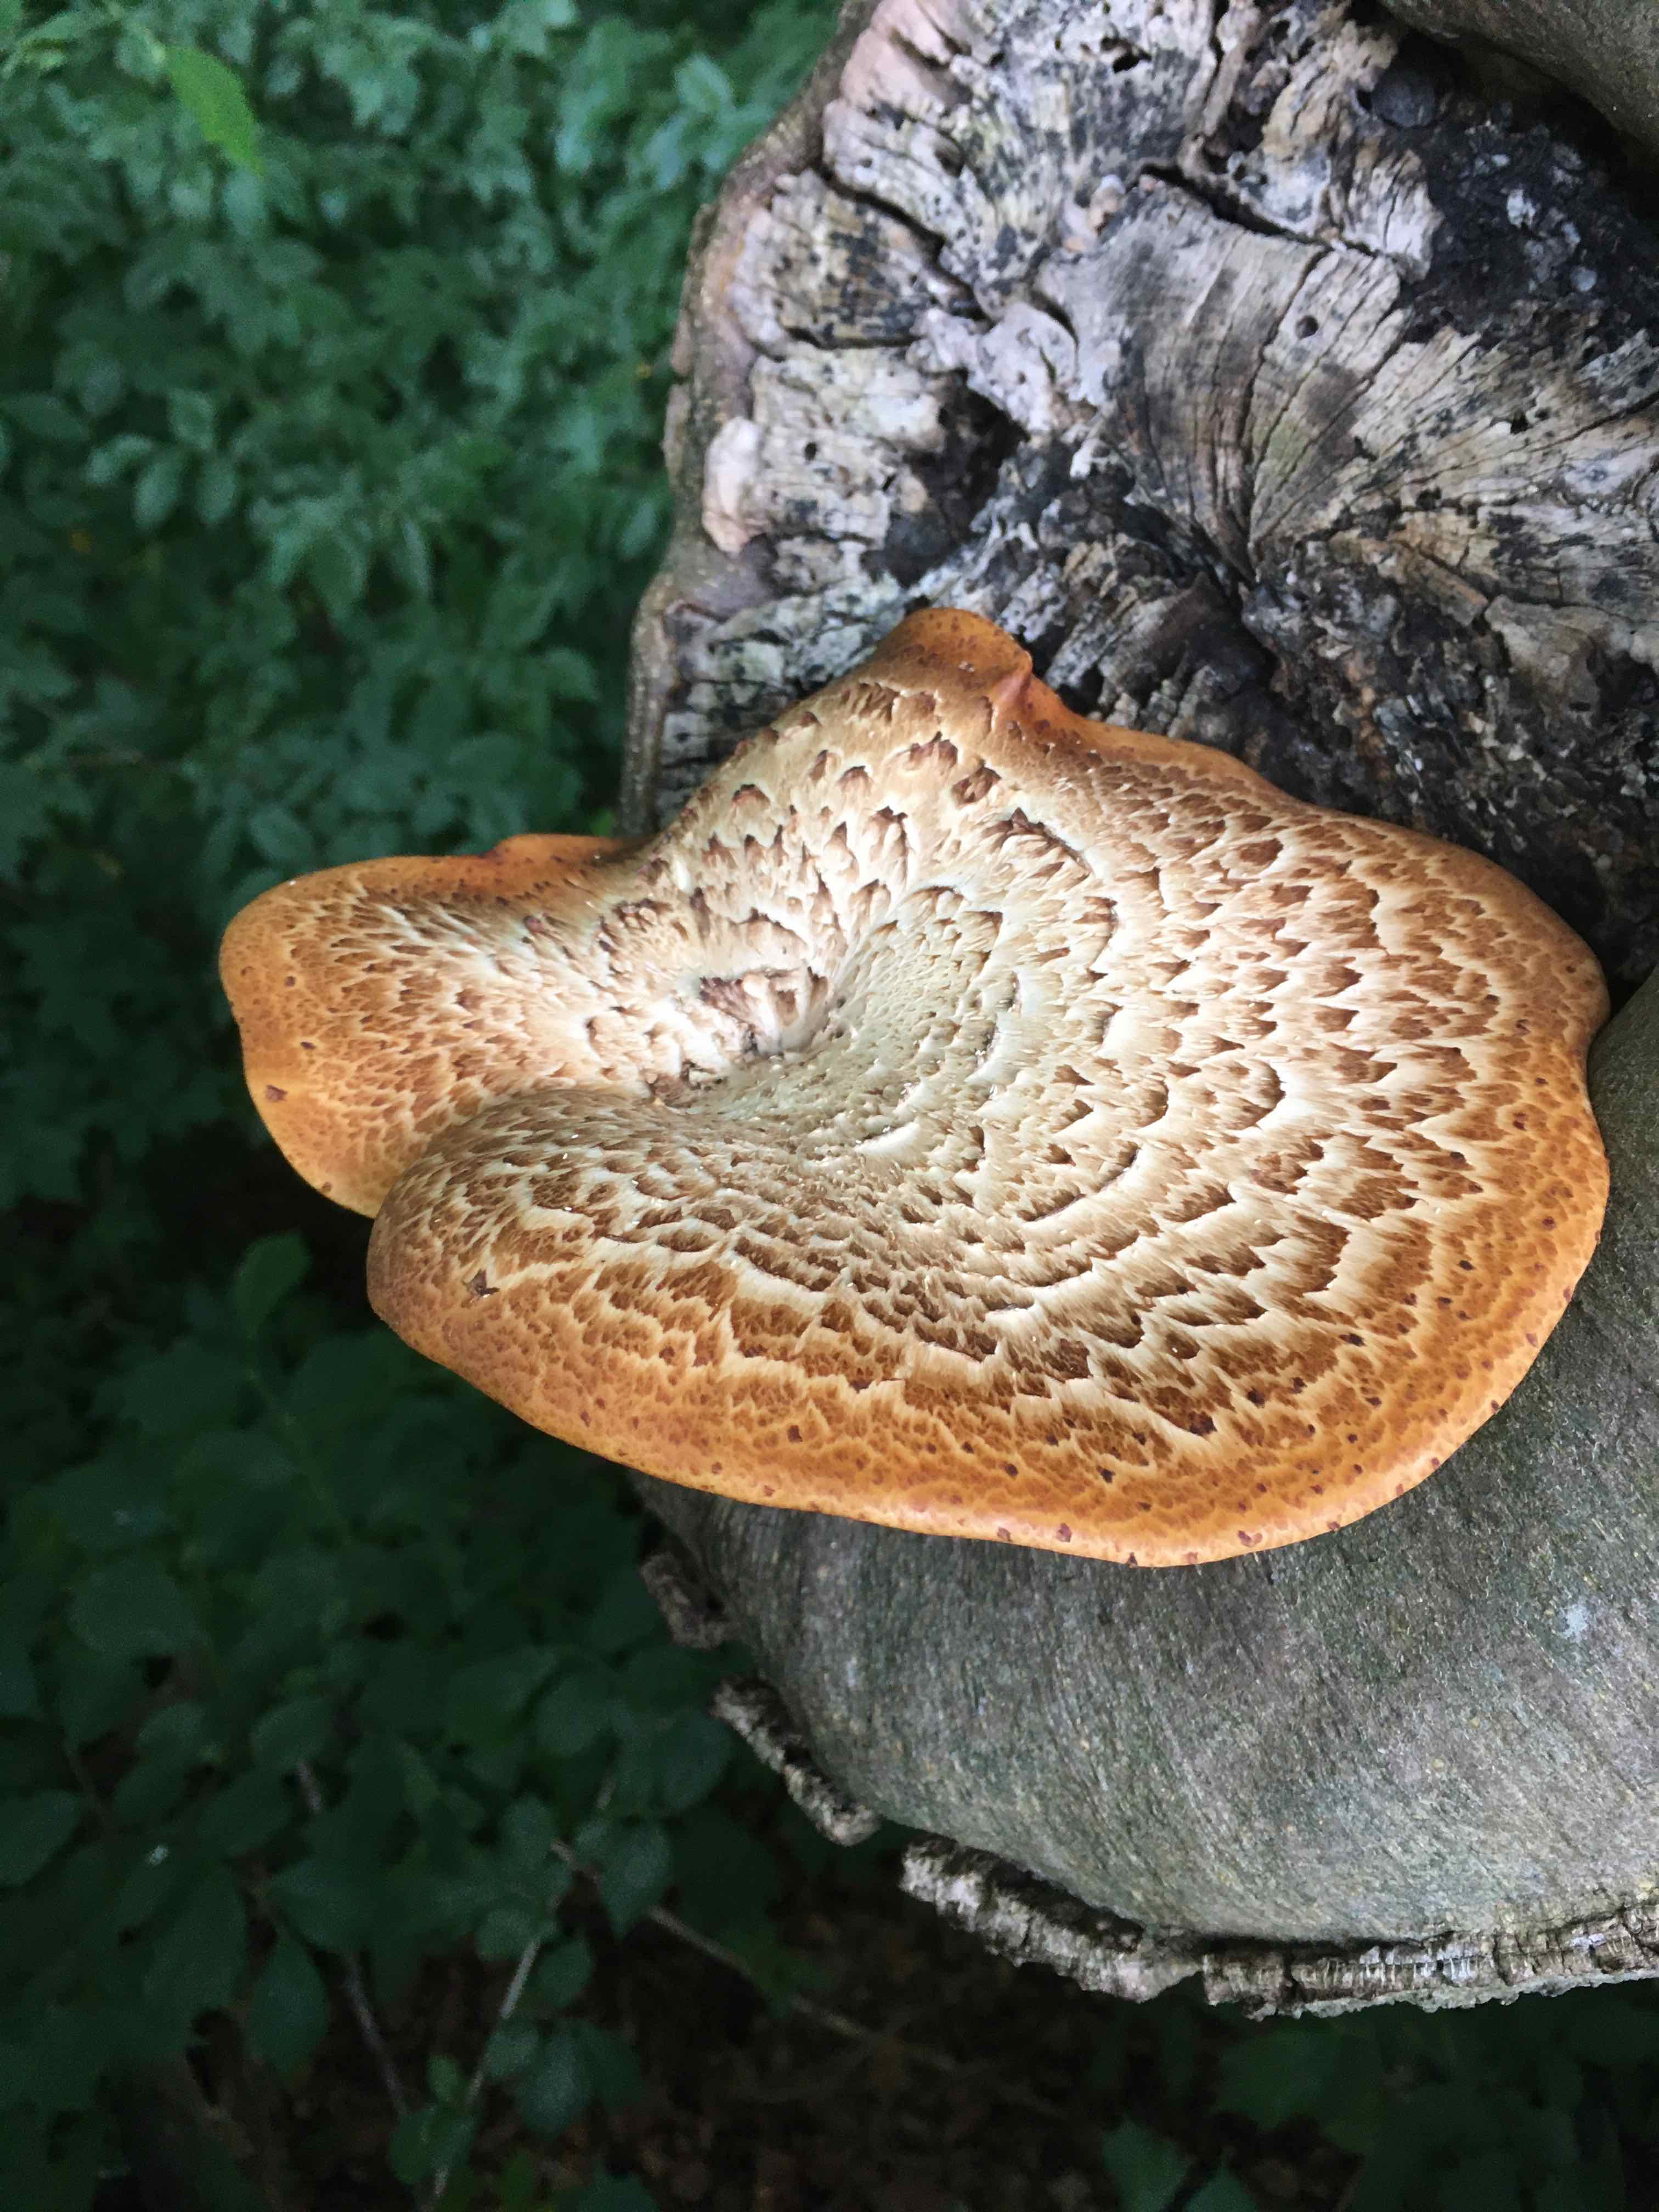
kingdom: Fungi
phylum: Basidiomycota
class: Agaricomycetes
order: Polyporales
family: Polyporaceae
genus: Cerioporus
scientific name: Cerioporus squamosus
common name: skællet stilkporesvamp
